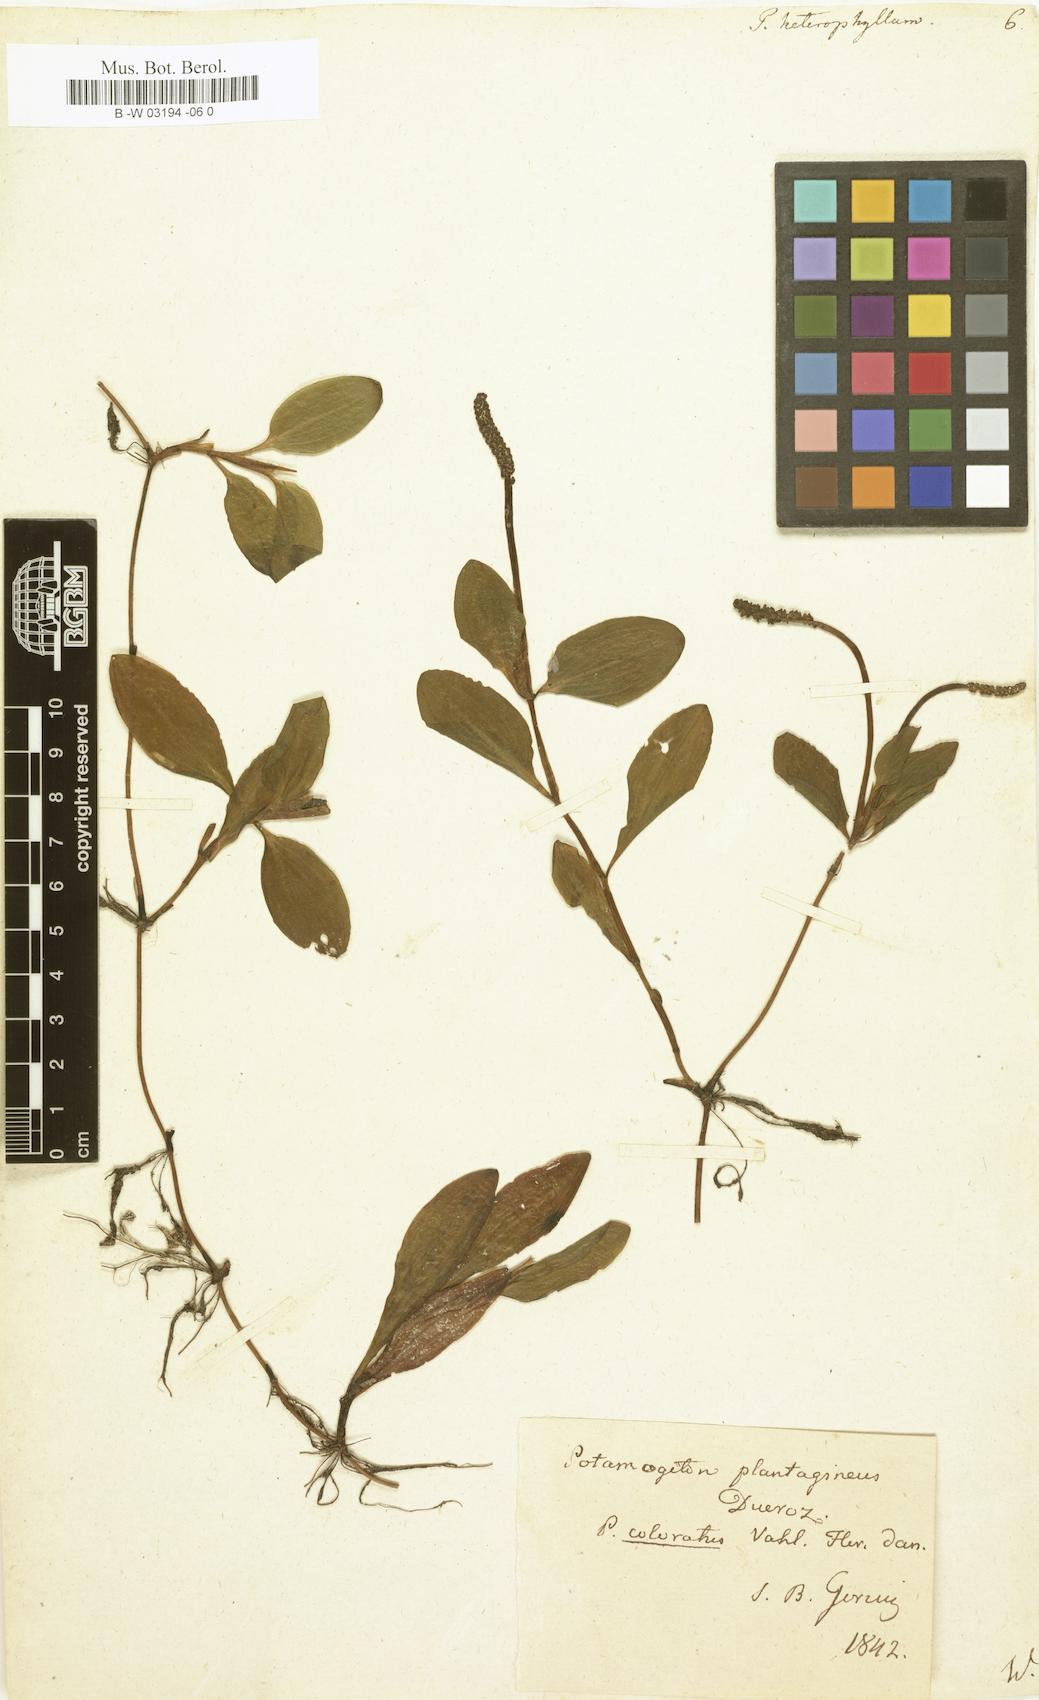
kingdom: Plantae
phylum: Tracheophyta
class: Liliopsida
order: Alismatales
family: Potamogetonaceae
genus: Potamogeton
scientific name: Potamogeton heterophyllus
